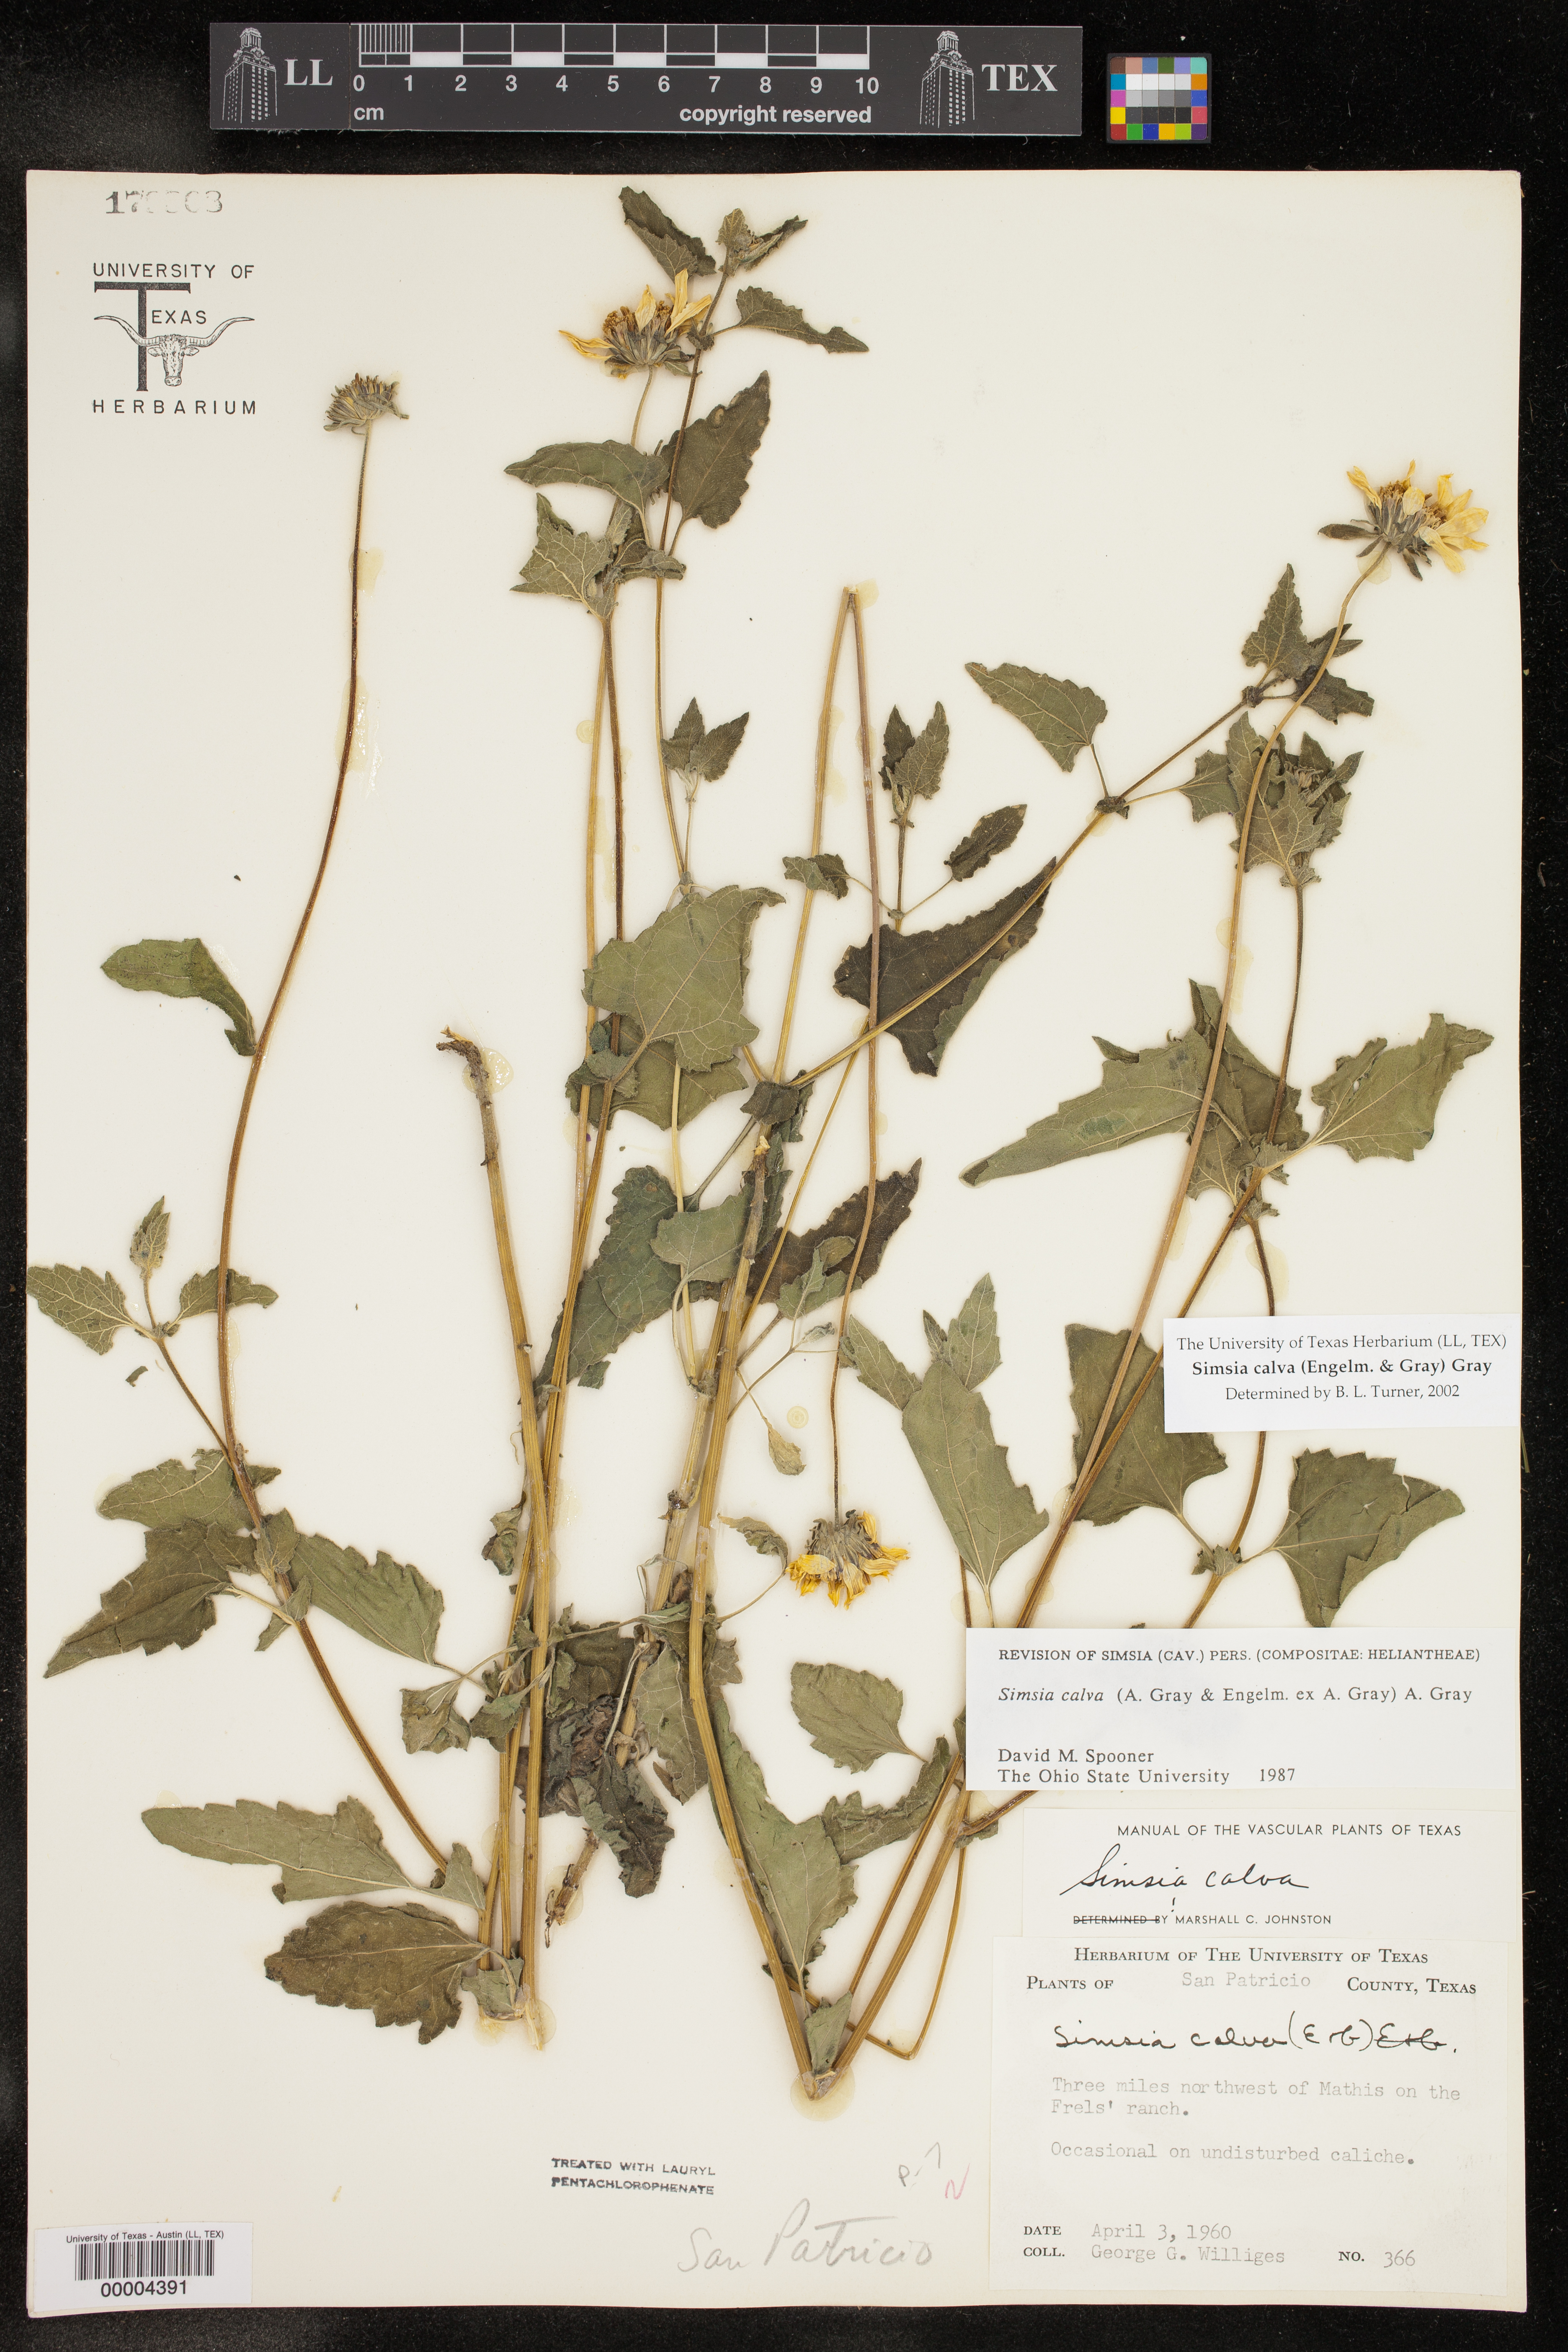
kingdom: Plantae
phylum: Tracheophyta
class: Magnoliopsida
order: Asterales
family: Asteraceae
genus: Simsia
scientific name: Simsia calva
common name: Awnless bush-sunflower
